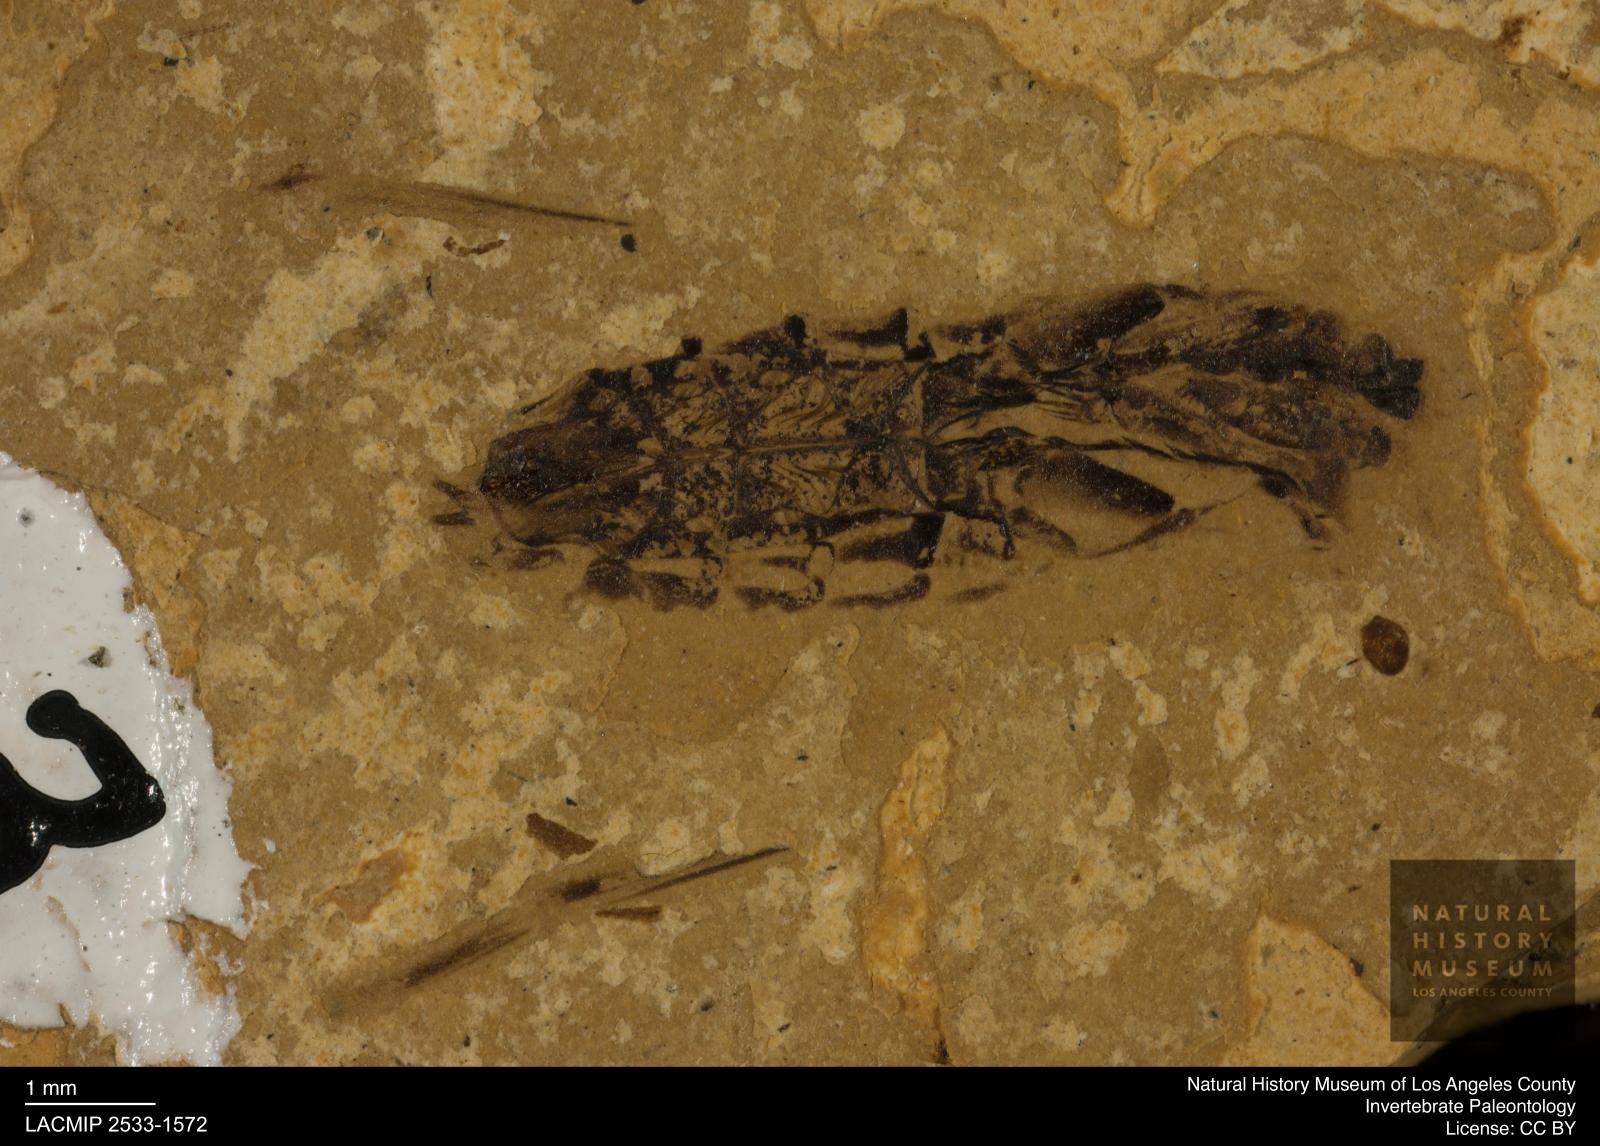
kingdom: Animalia
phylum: Arthropoda
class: Insecta
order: Hemiptera
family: Notonectidae
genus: Notonecta
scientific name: Notonecta
